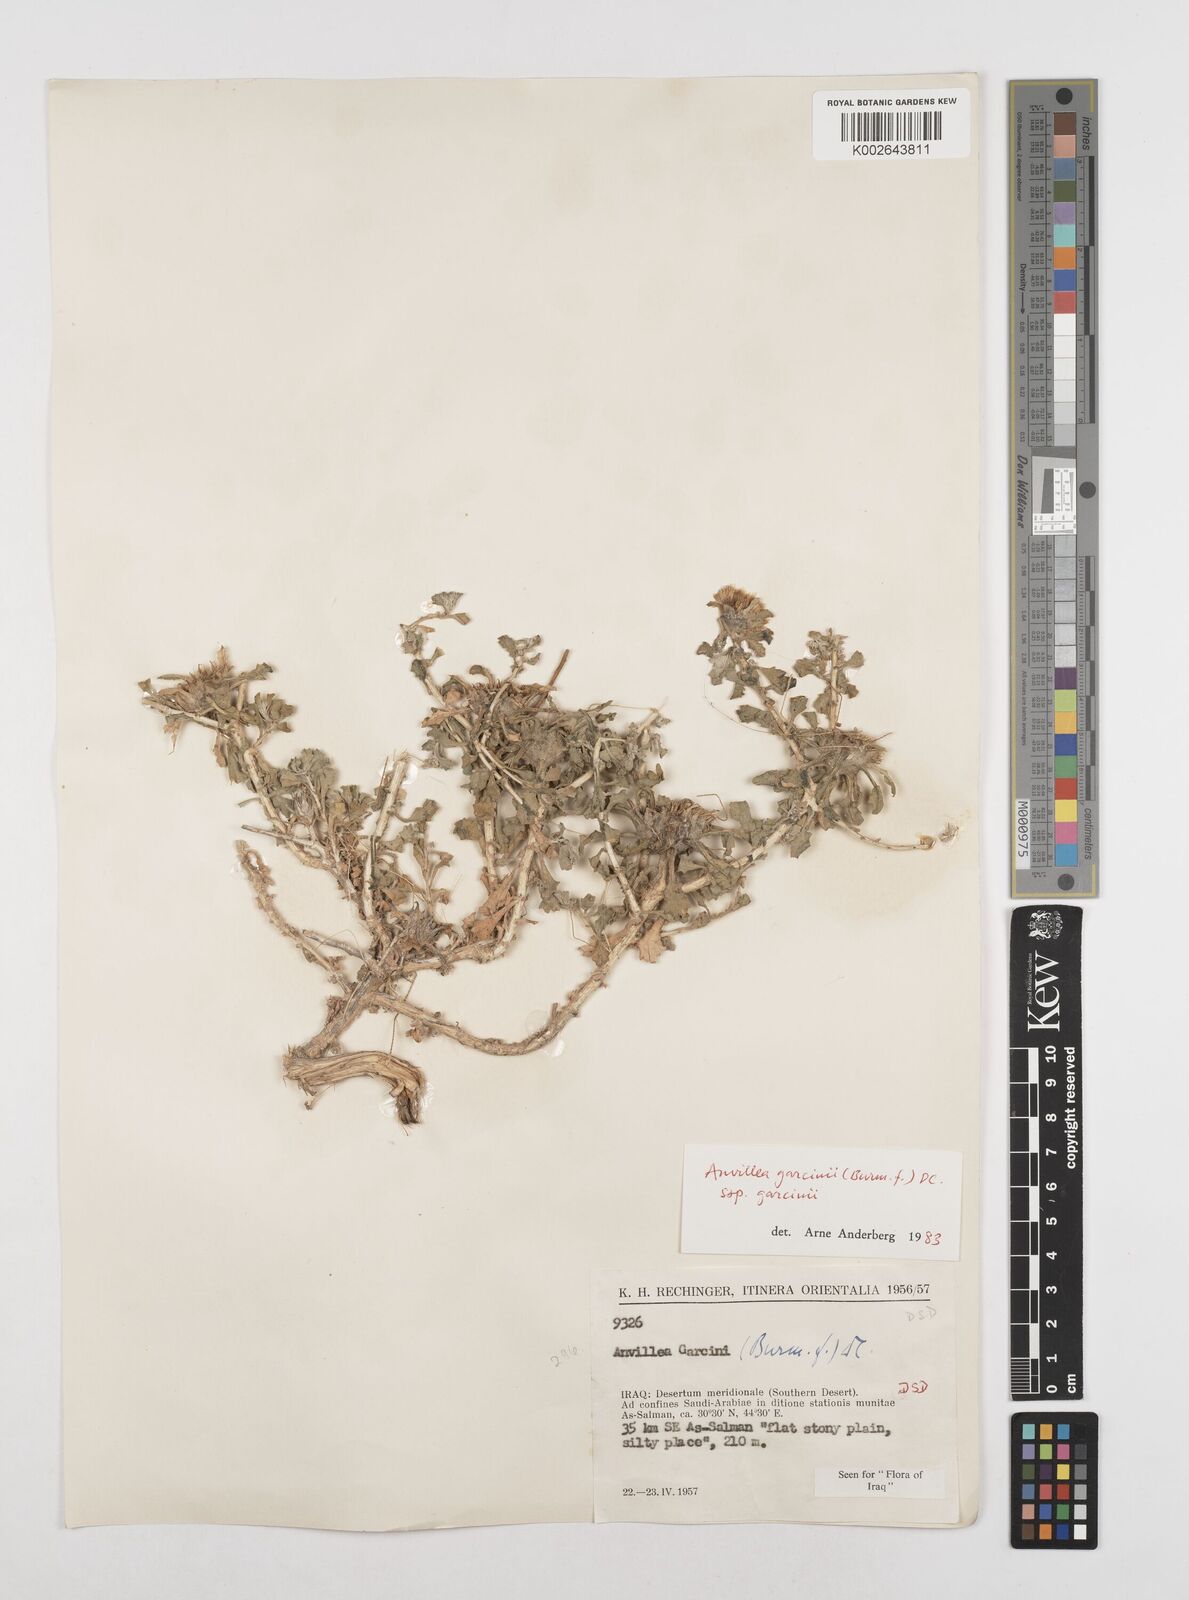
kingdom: Plantae
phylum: Tracheophyta
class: Magnoliopsida
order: Asterales
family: Asteraceae
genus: Anvillea
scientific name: Anvillea garcinii
